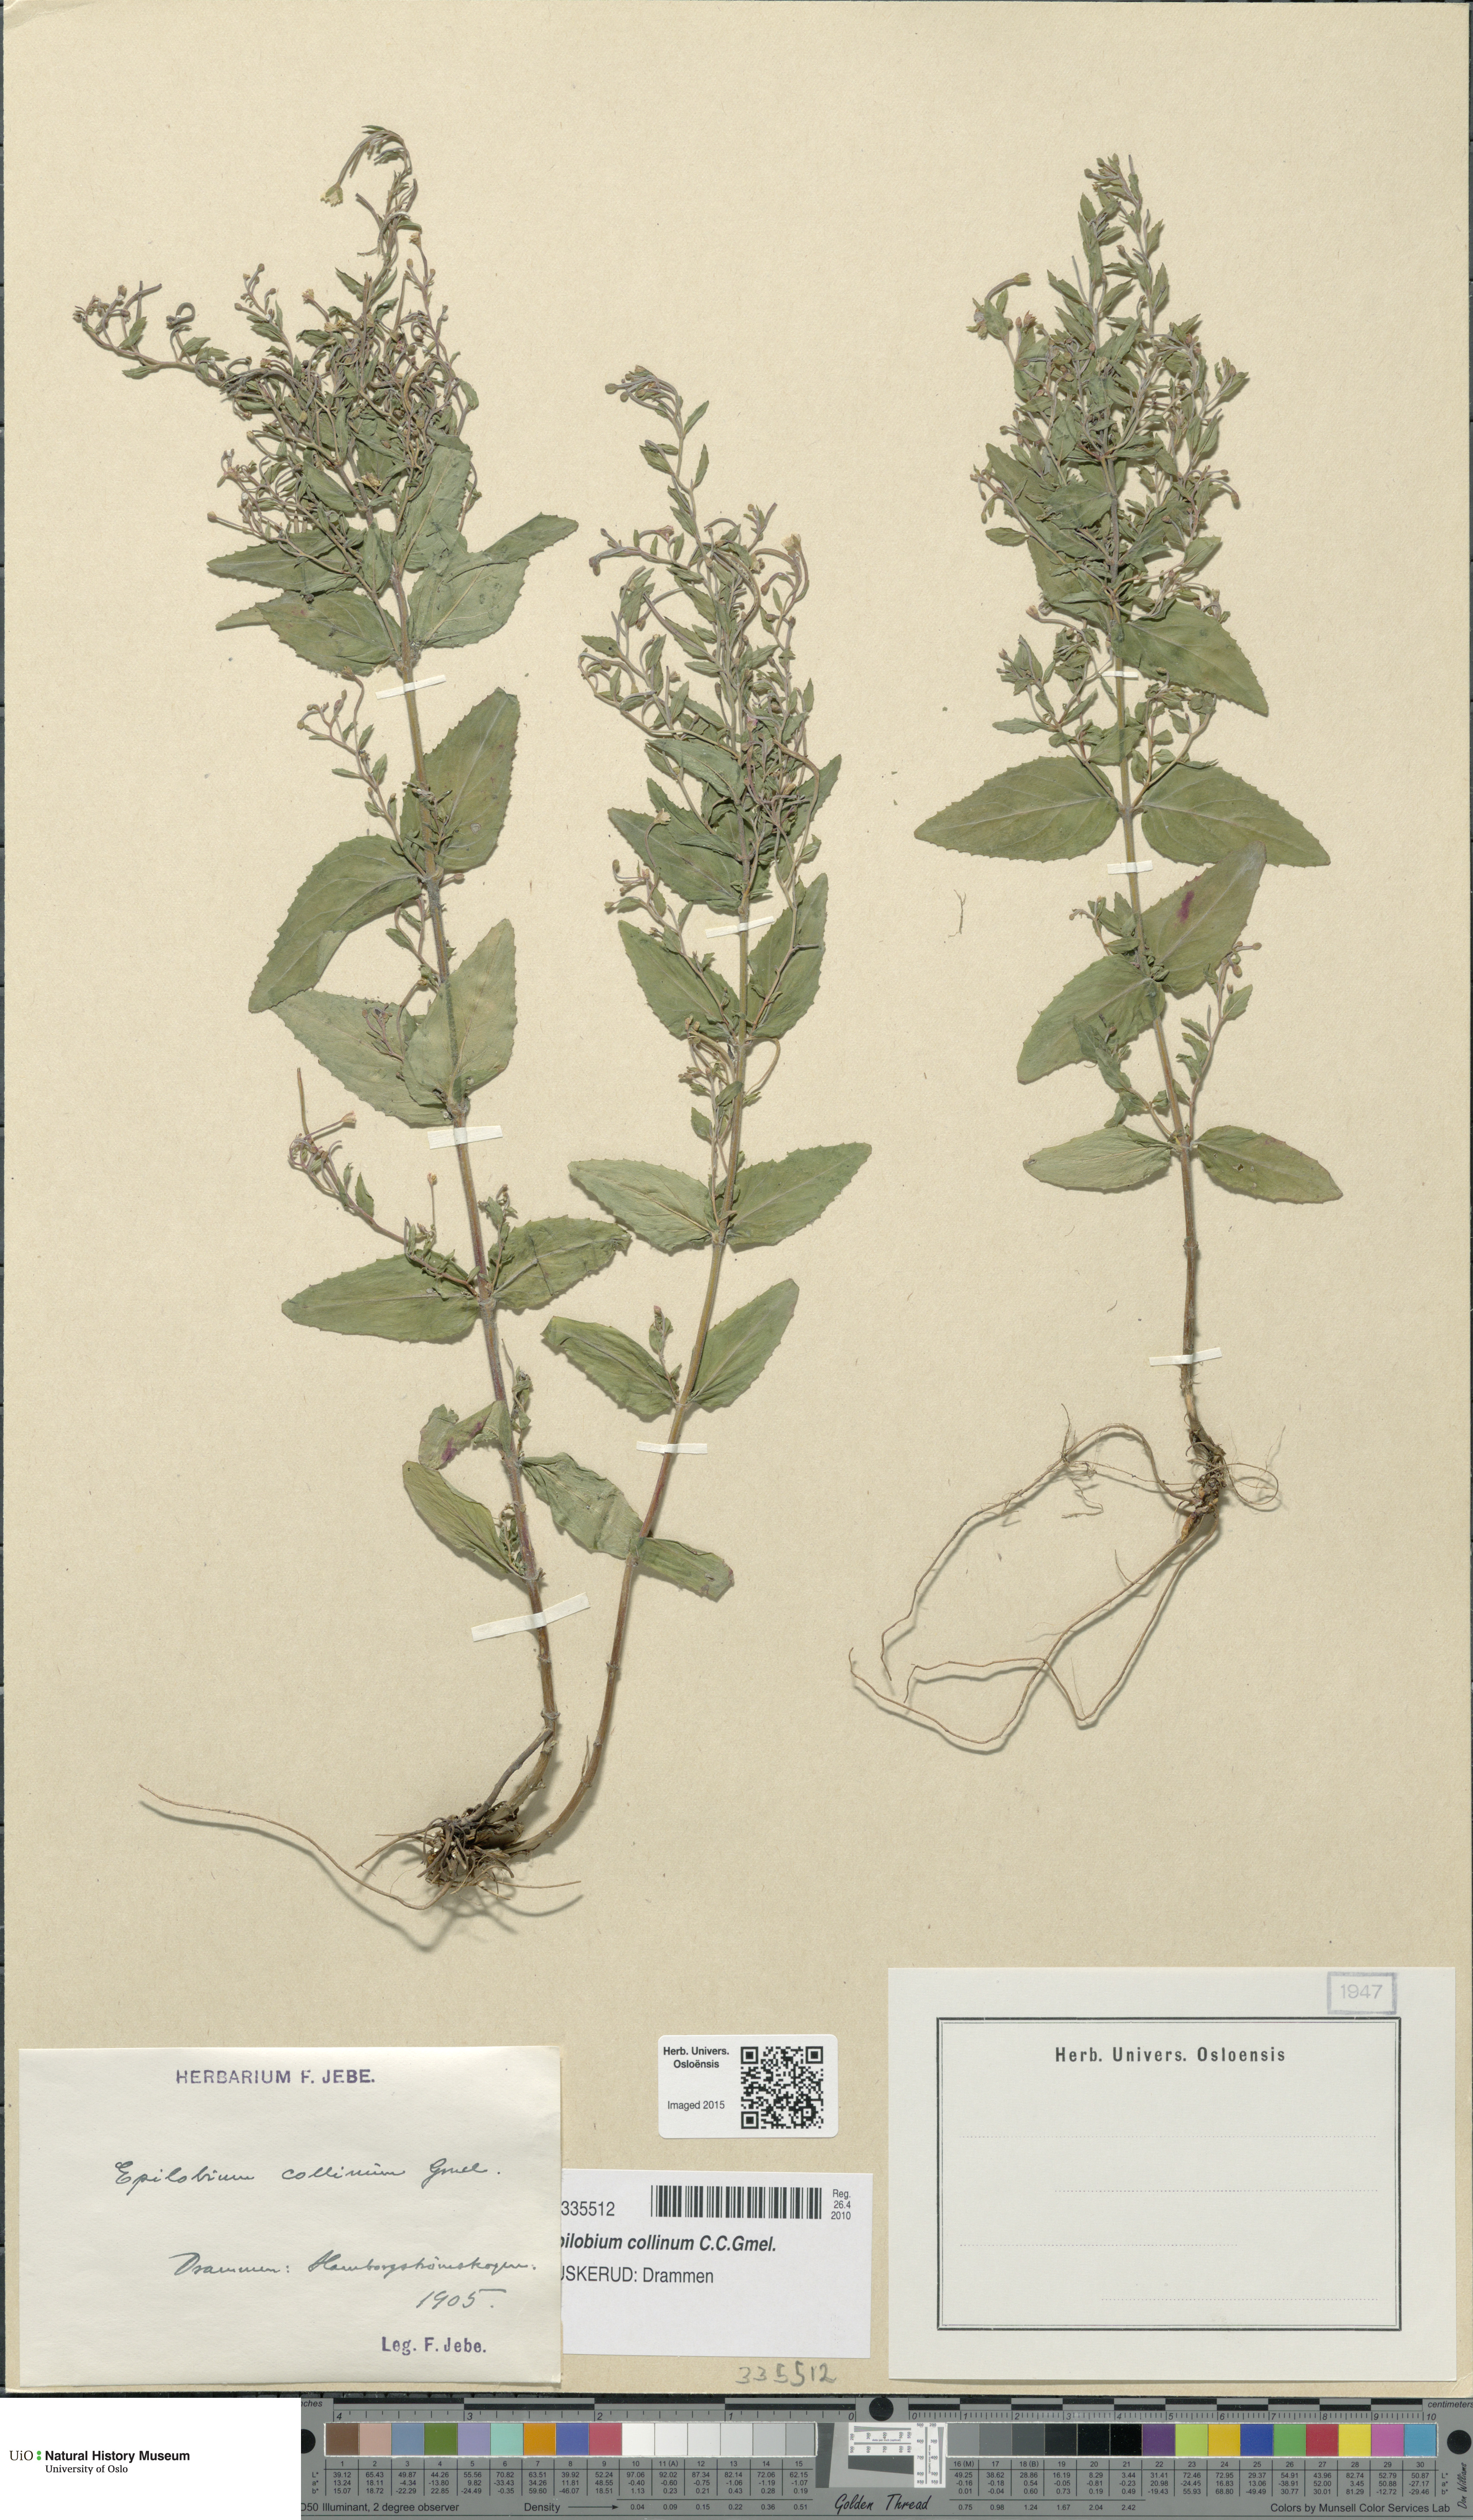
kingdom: Plantae
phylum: Tracheophyta
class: Magnoliopsida
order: Myrtales
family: Onagraceae
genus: Epilobium
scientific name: Epilobium collinum
